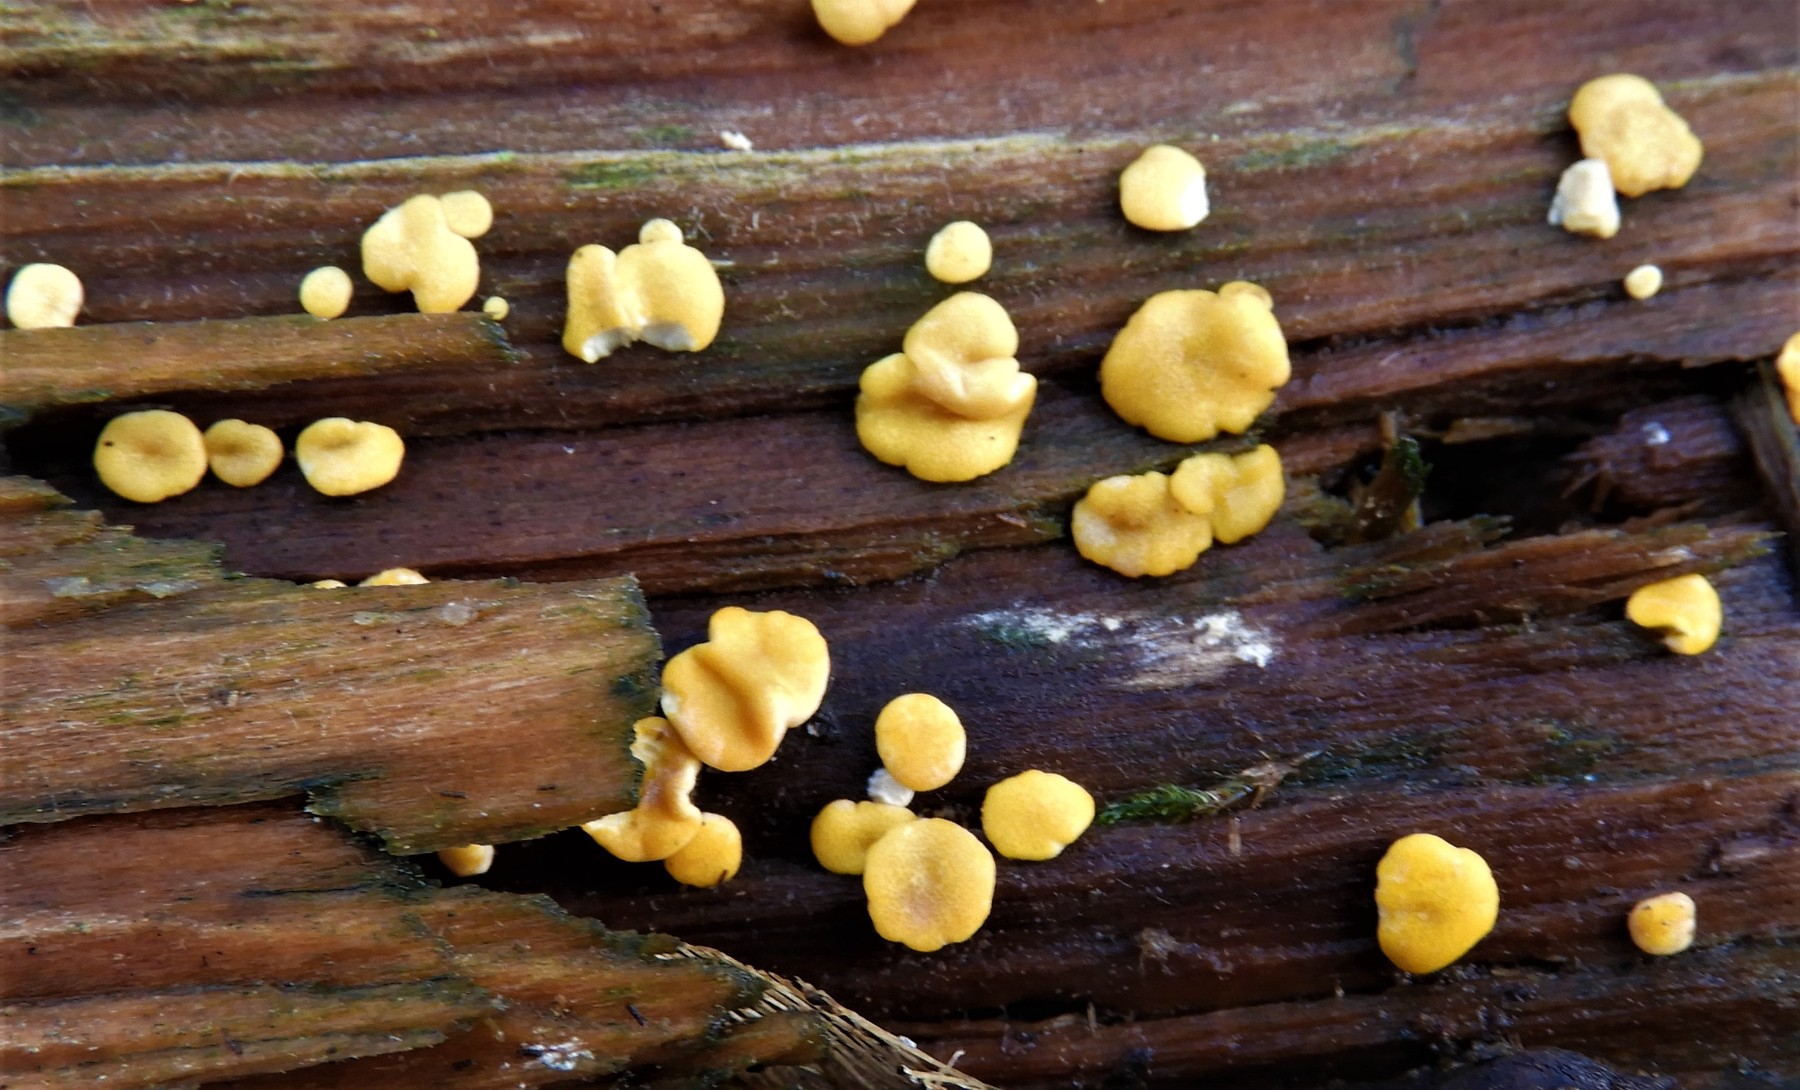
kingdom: Fungi
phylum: Ascomycota
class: Sordariomycetes
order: Hypocreales
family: Hypocreaceae
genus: Trichoderma
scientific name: Trichoderma aureoviride
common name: æggegul kødkerne
